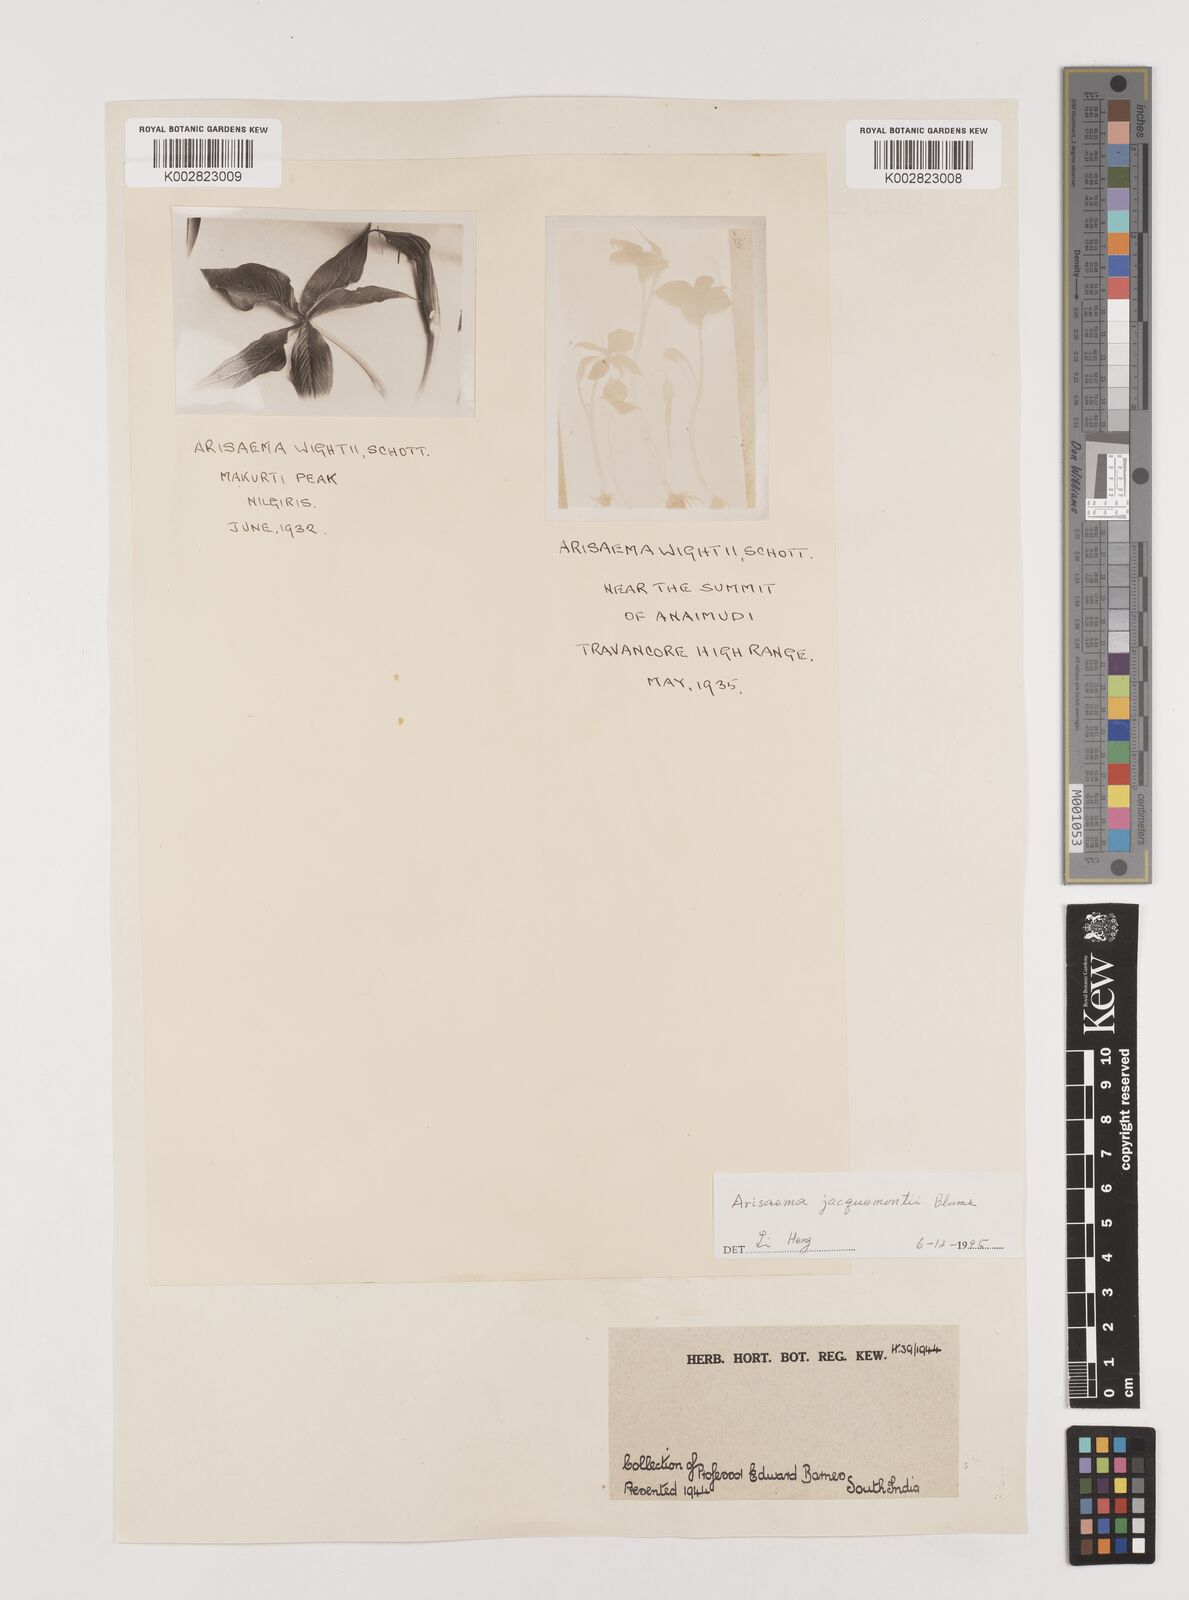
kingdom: Plantae
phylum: Tracheophyta
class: Liliopsida
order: Alismatales
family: Araceae
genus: Arisaema
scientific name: Arisaema jacquemontii
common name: Jacquemont's cobra-lily
